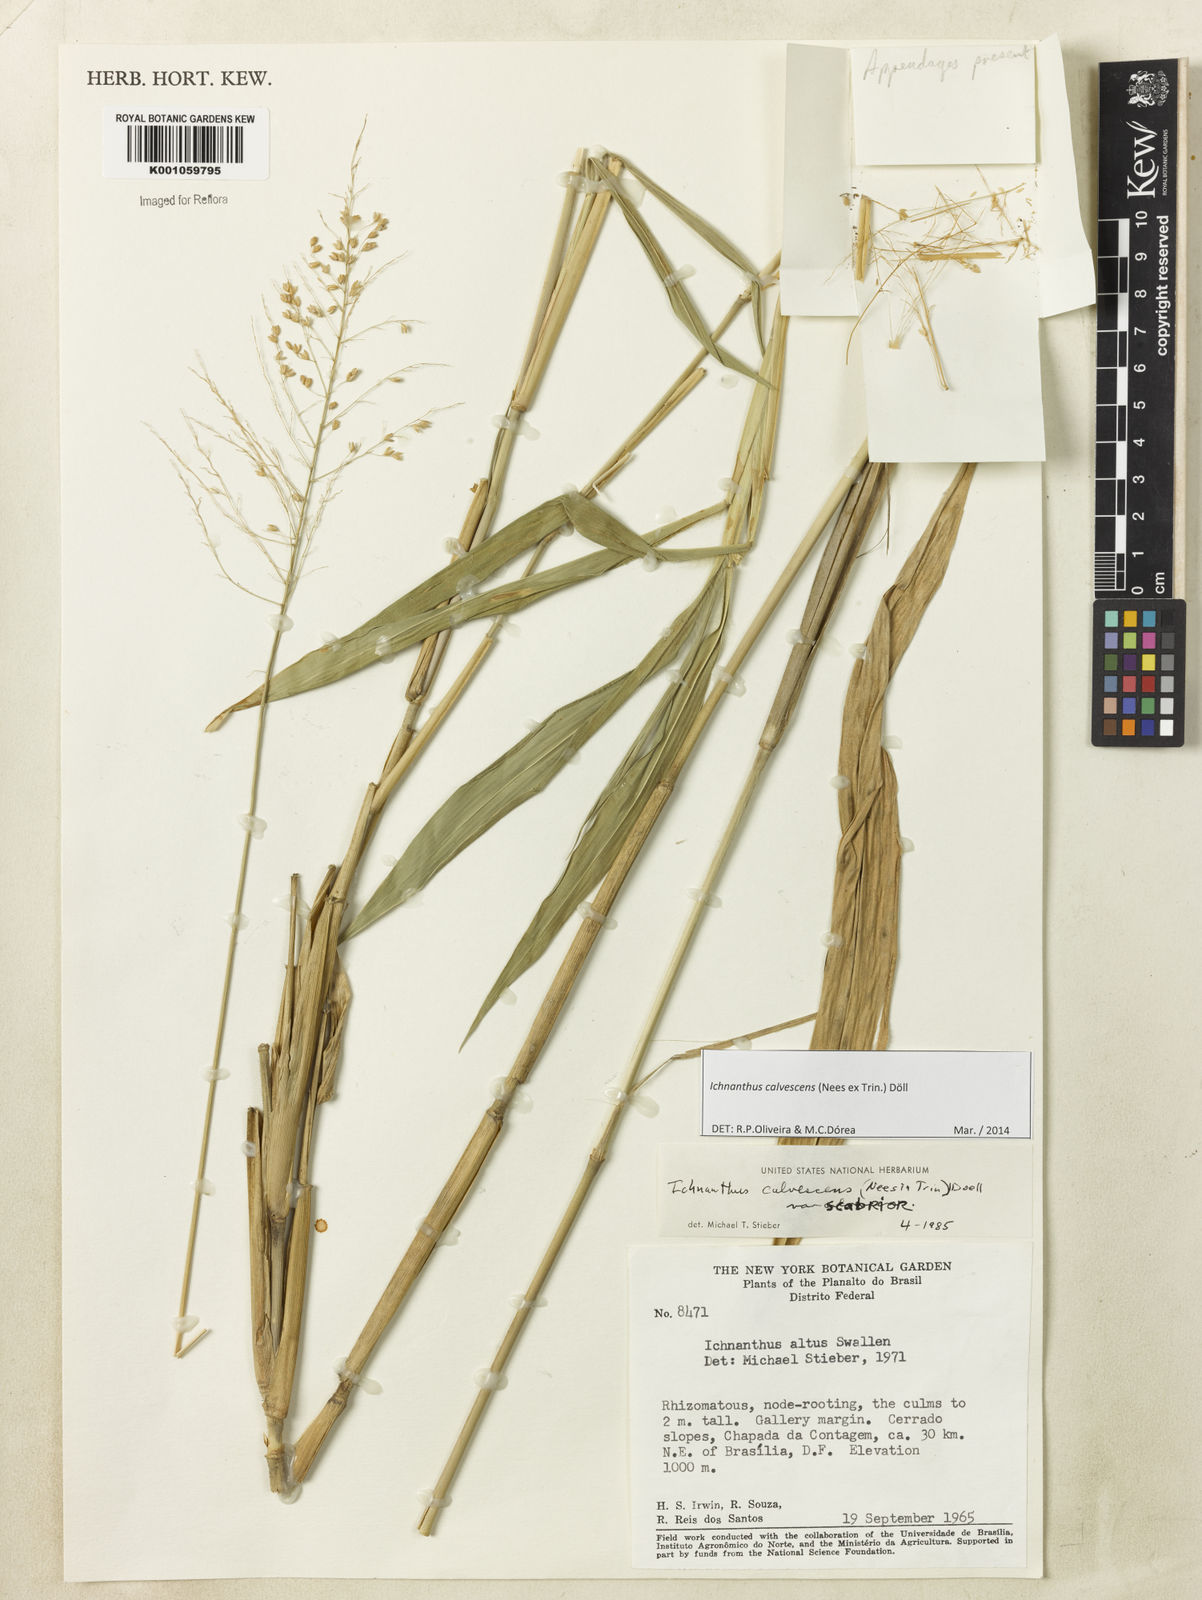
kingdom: Plantae
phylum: Tracheophyta
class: Liliopsida
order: Poales
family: Poaceae
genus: Ichnanthus
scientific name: Ichnanthus
